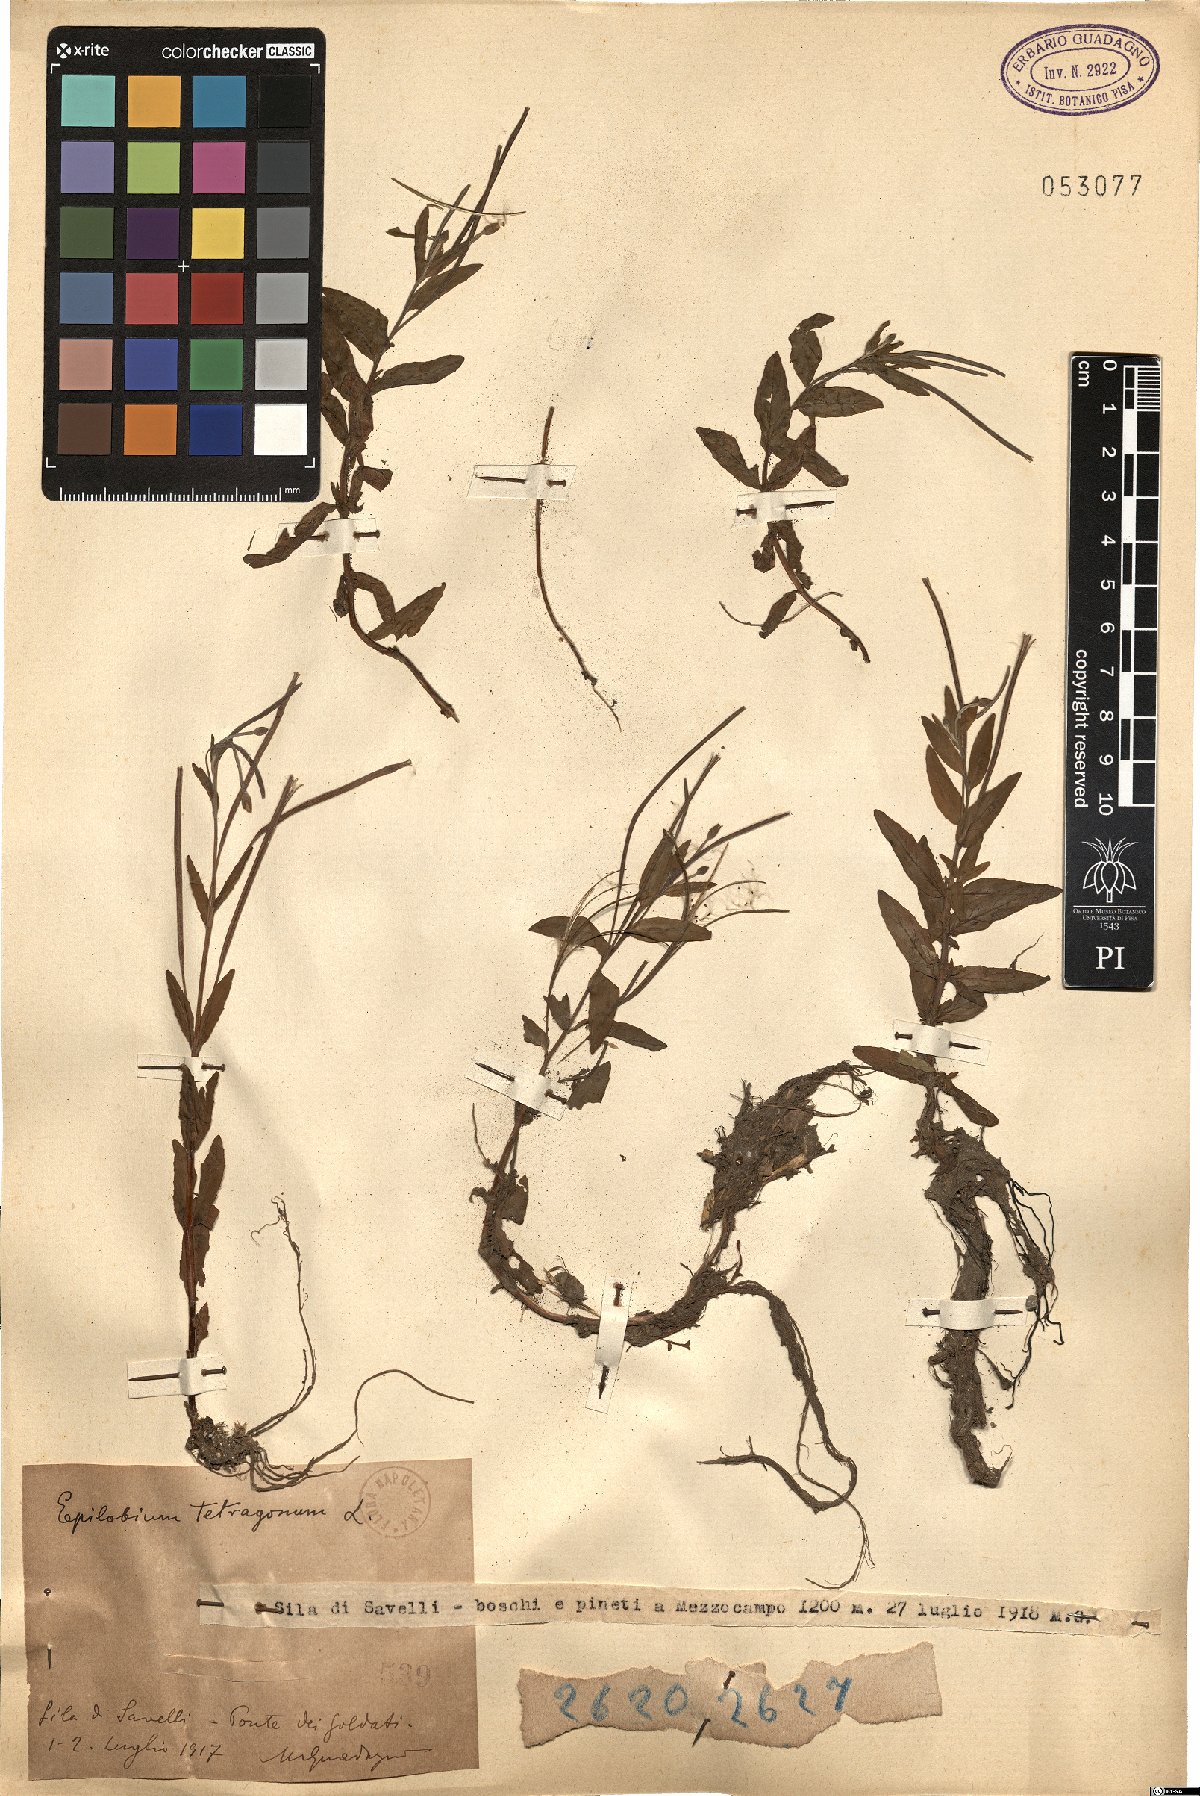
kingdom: Plantae
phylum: Tracheophyta
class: Magnoliopsida
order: Myrtales
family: Onagraceae
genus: Epilobium
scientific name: Epilobium tetragonum
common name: Square-stemmed willowherb
